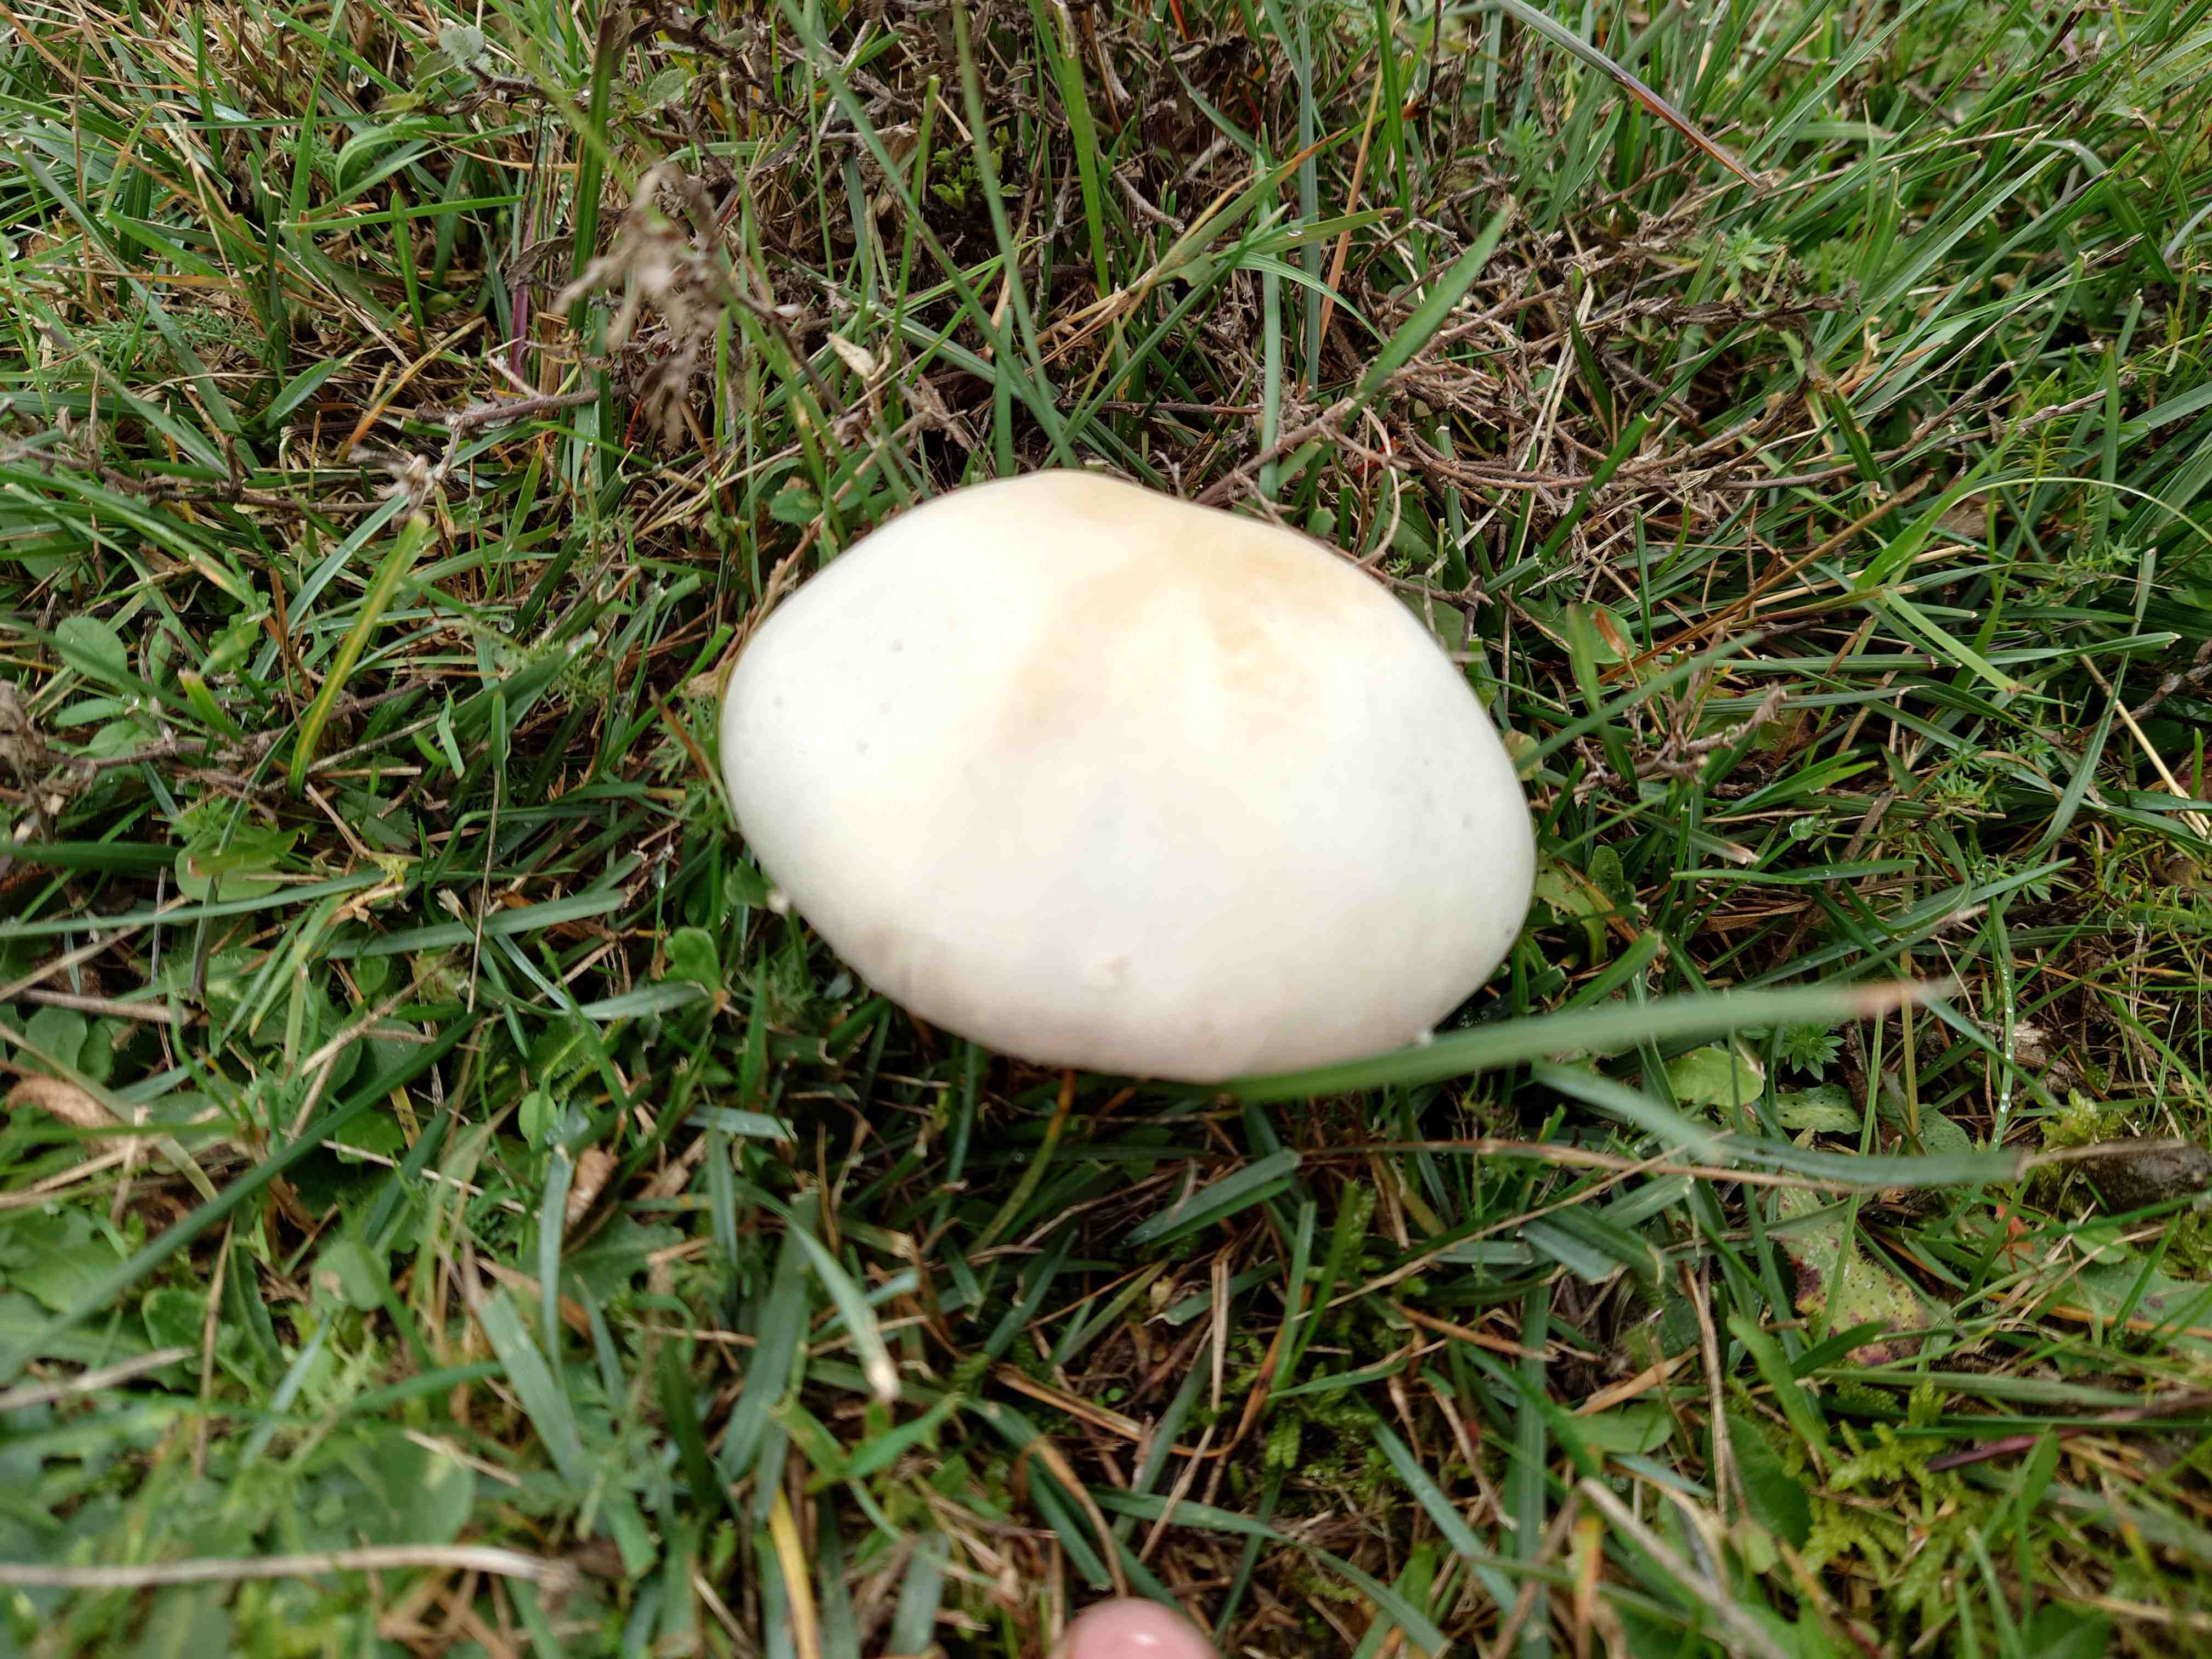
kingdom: Fungi
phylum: Basidiomycota
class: Agaricomycetes
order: Agaricales
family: Agaricaceae
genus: Agaricus
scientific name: Agaricus arvensis
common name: ager-champignon
